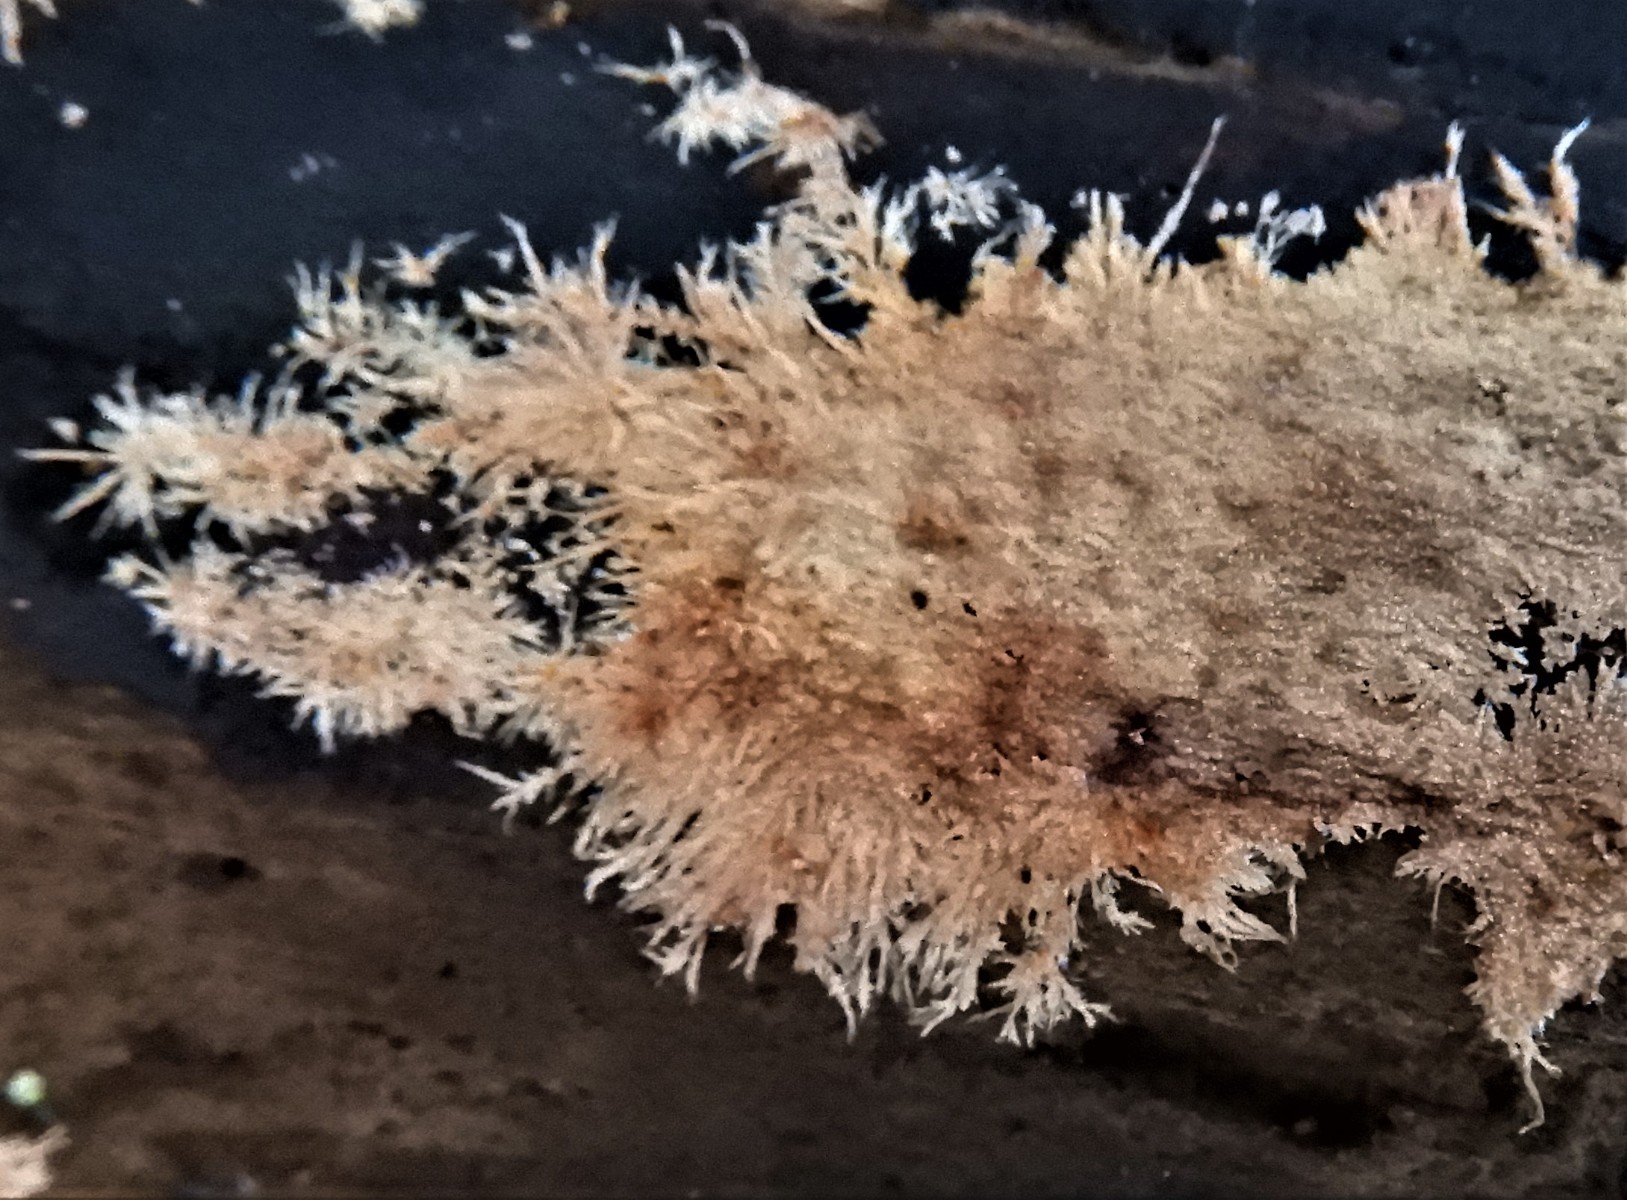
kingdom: Fungi
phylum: Basidiomycota
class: Agaricomycetes
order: Polyporales
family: Steccherinaceae
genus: Steccherinum
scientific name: Steccherinum fimbriatum
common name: trådet skønpig
